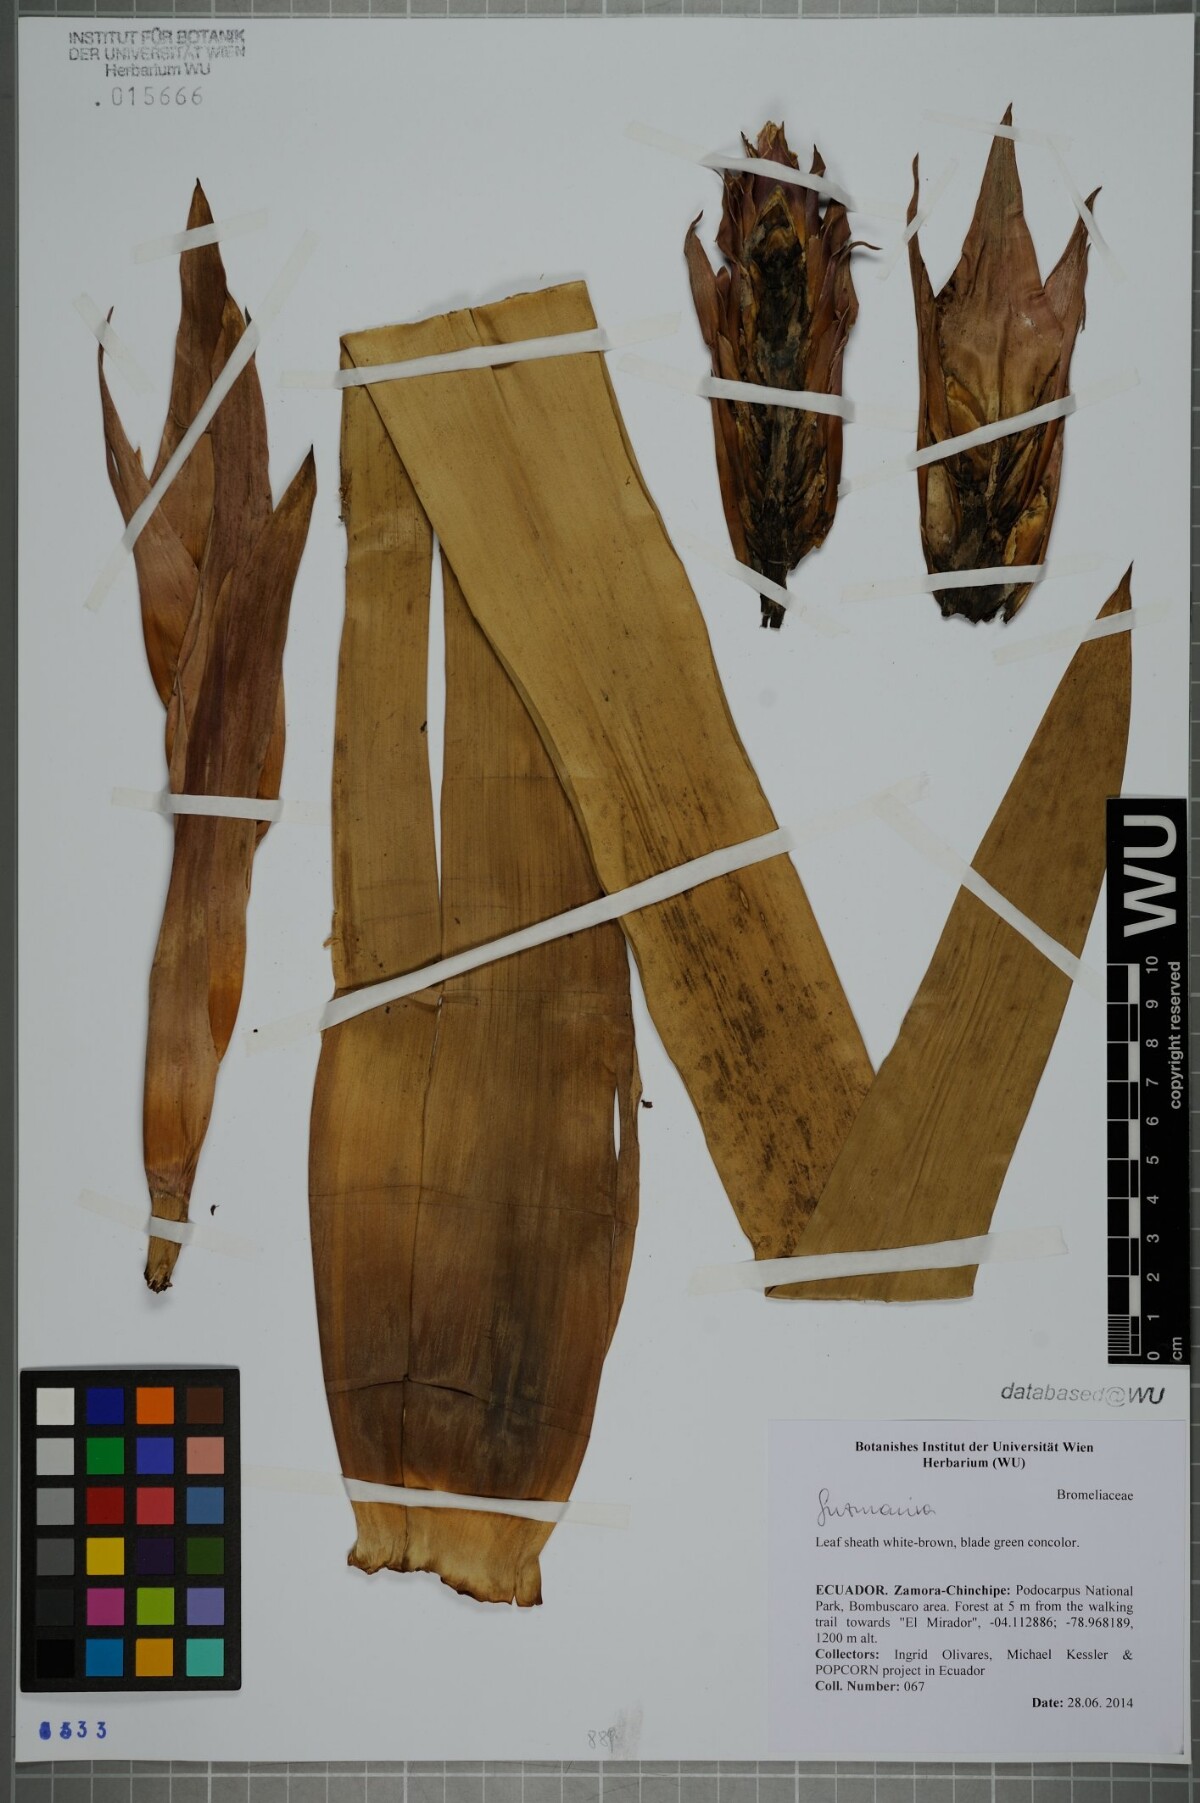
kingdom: Plantae
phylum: Tracheophyta
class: Liliopsida
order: Poales
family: Bromeliaceae
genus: Guzmania
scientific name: Guzmania
